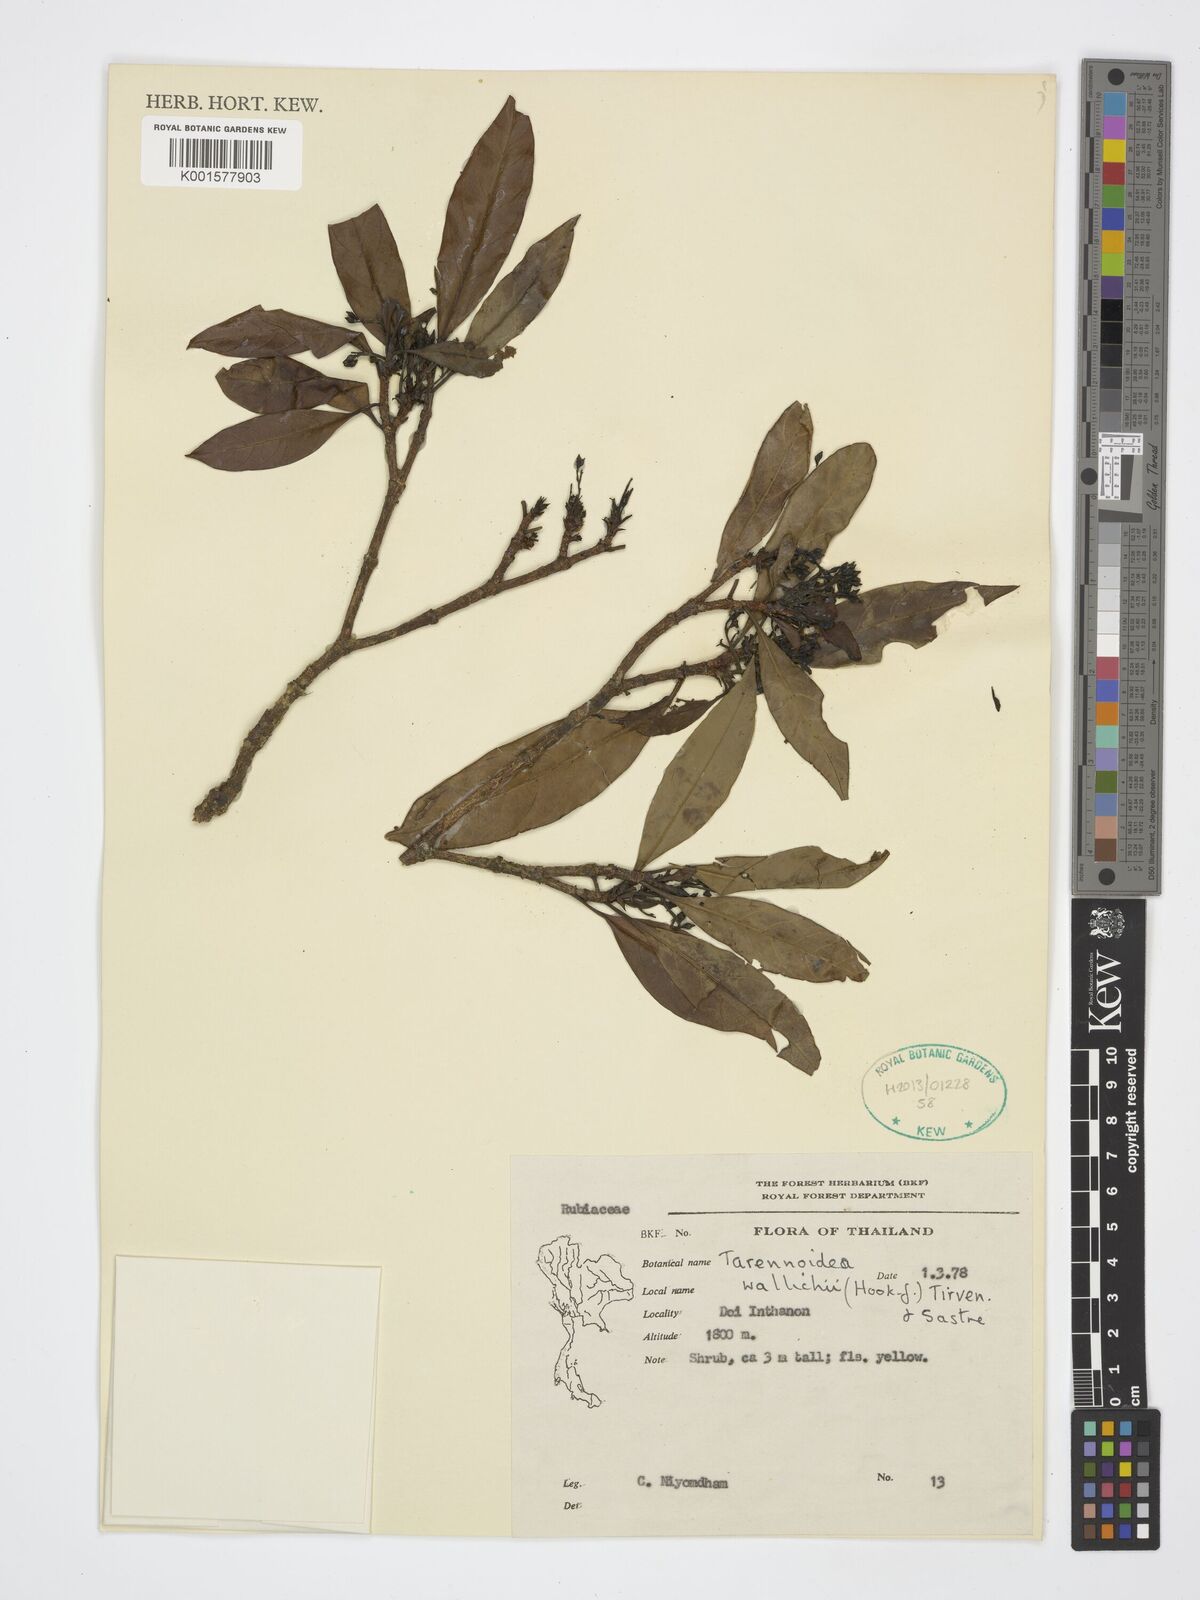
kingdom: Plantae
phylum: Tracheophyta
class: Magnoliopsida
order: Gentianales
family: Rubiaceae
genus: Tarennoidea
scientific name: Tarennoidea wallichii
